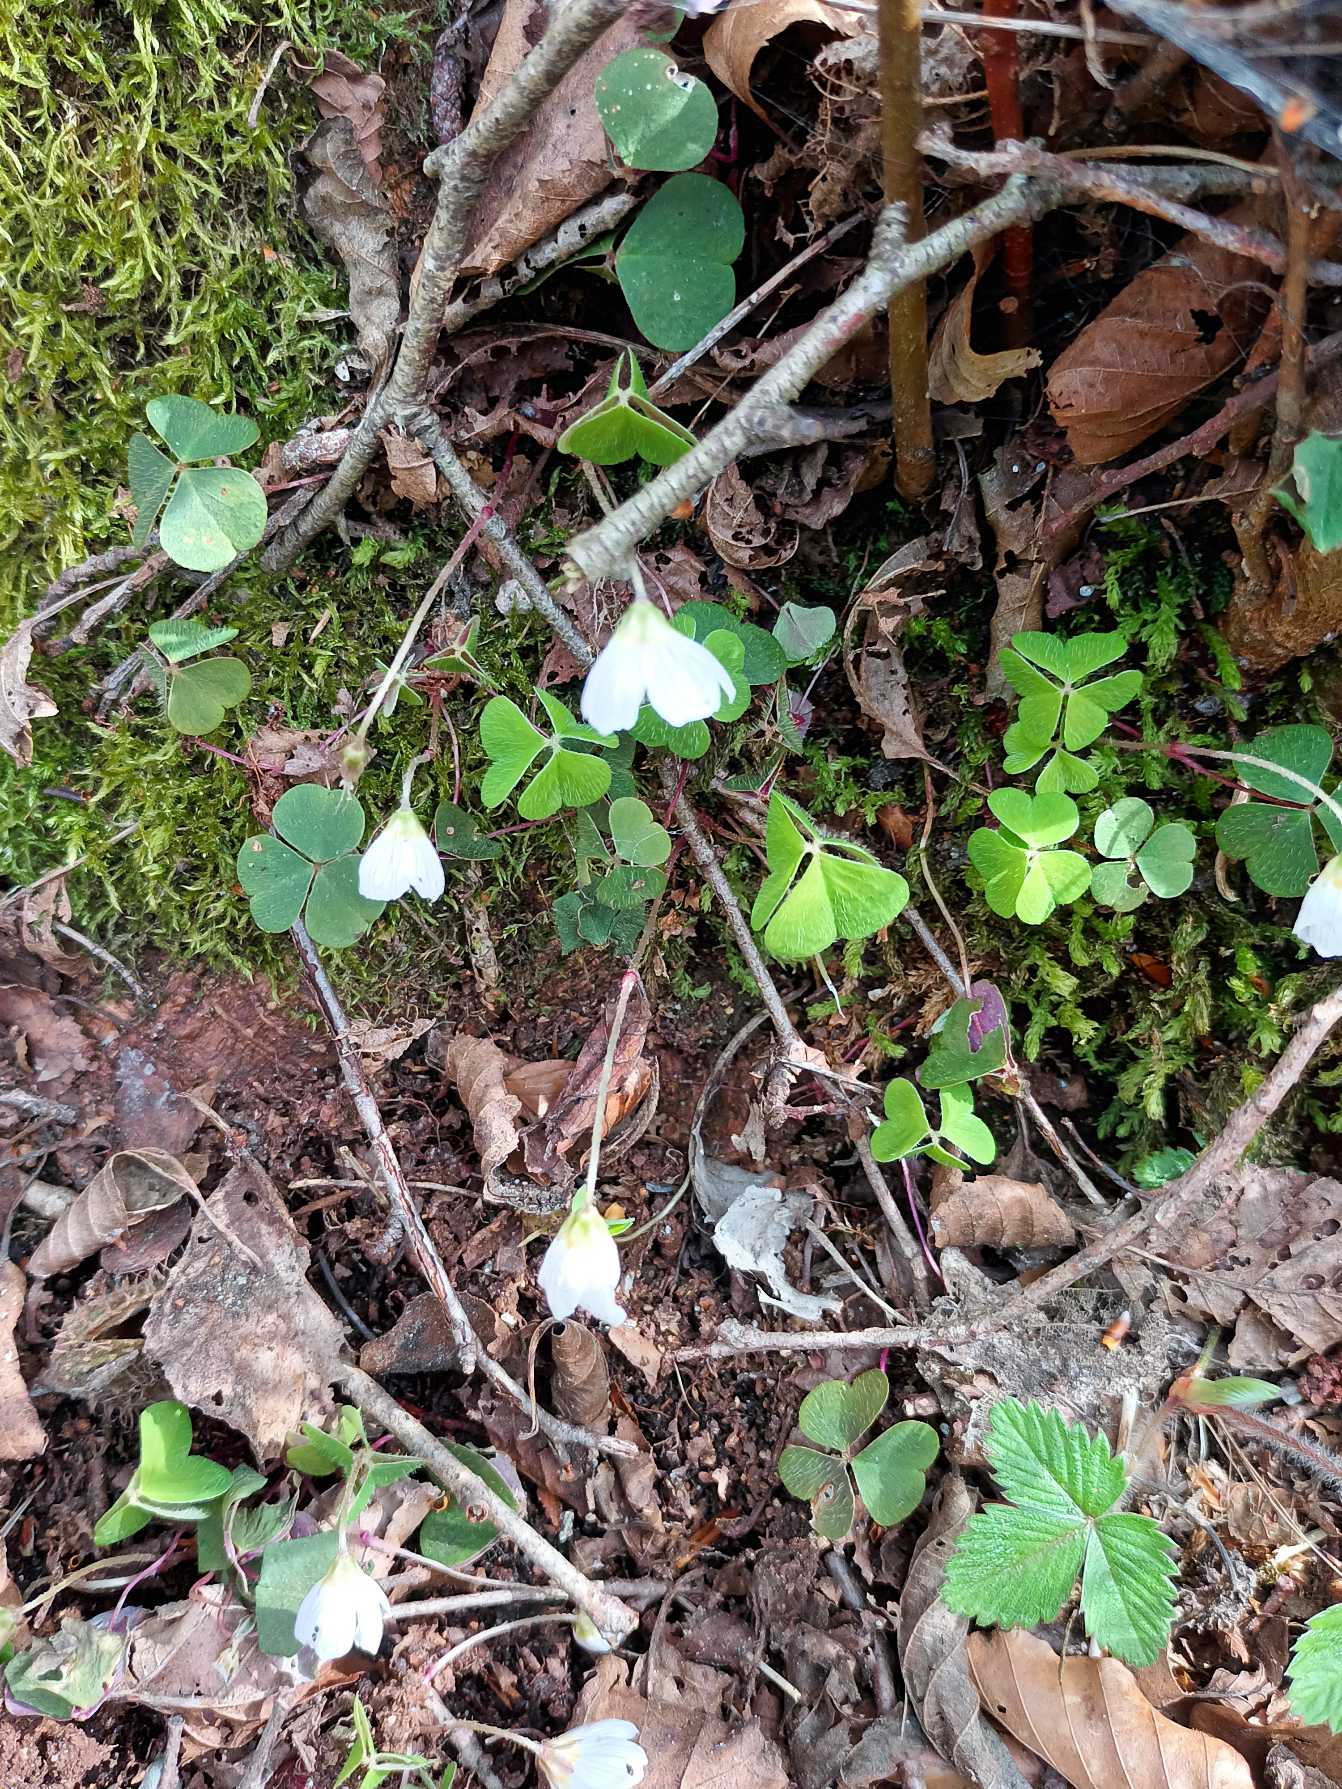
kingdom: Plantae
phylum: Tracheophyta
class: Magnoliopsida
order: Oxalidales
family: Oxalidaceae
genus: Oxalis
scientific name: Oxalis acetosella
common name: Skovsyre
